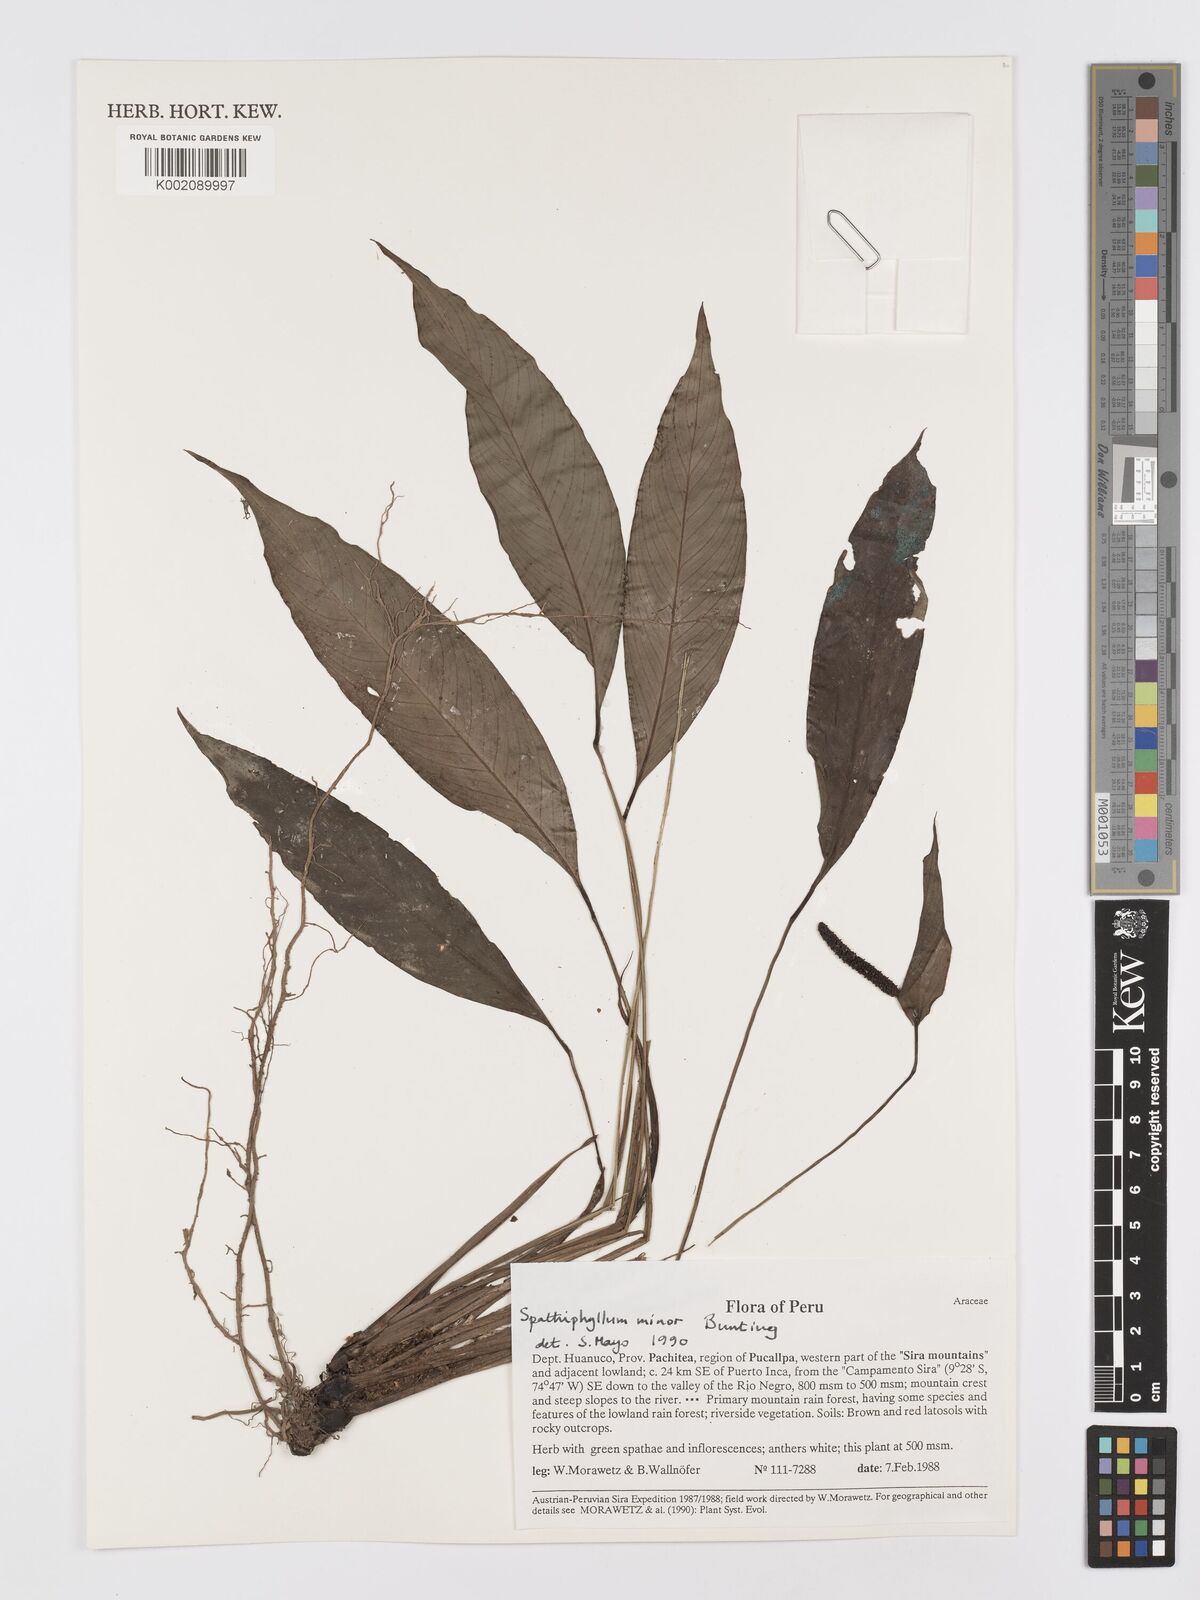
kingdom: Plantae
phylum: Tracheophyta
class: Liliopsida
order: Alismatales
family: Araceae
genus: Spathiphyllum
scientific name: Spathiphyllum minus
